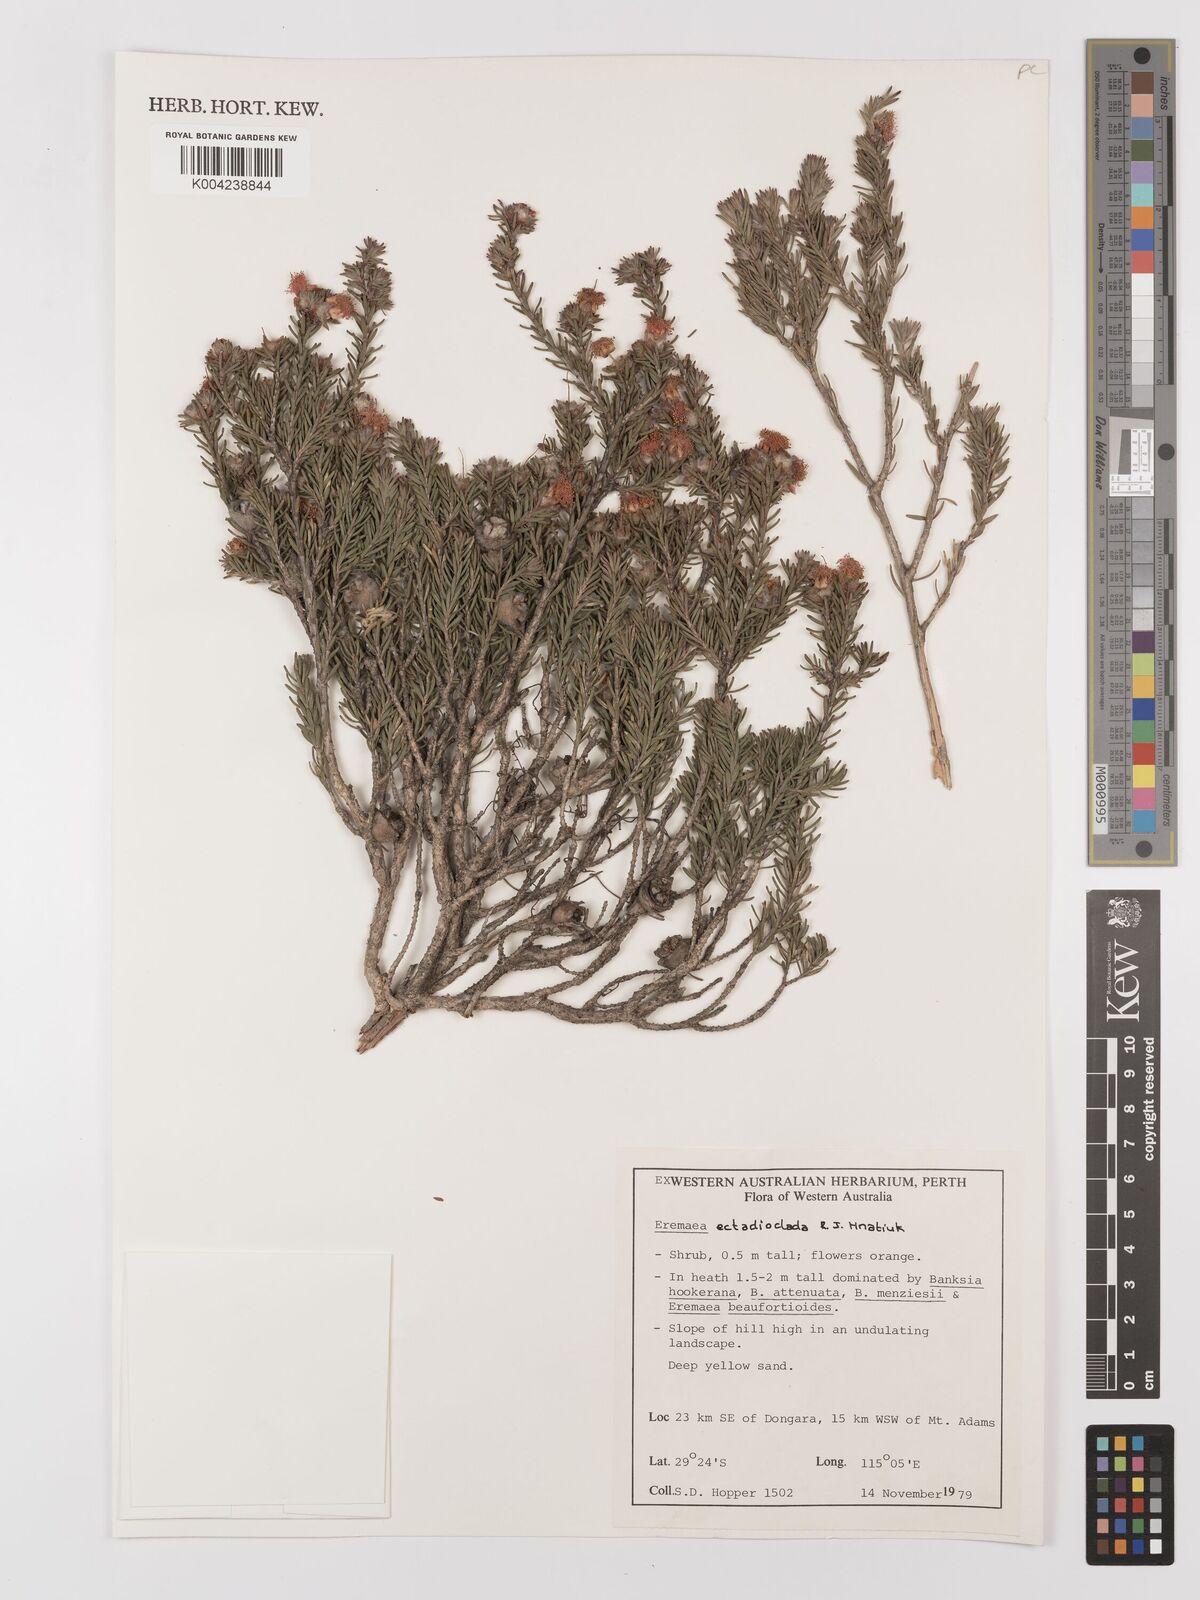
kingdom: Plantae
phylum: Tracheophyta
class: Magnoliopsida
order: Myrtales
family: Myrtaceae
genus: Melaleuca
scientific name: Melaleuca ectadioclada
